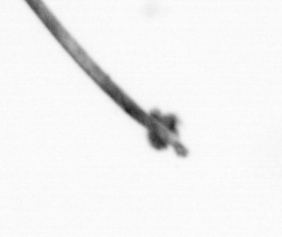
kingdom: Chromista
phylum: Ochrophyta
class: Bacillariophyceae
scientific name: Bacillariophyceae
